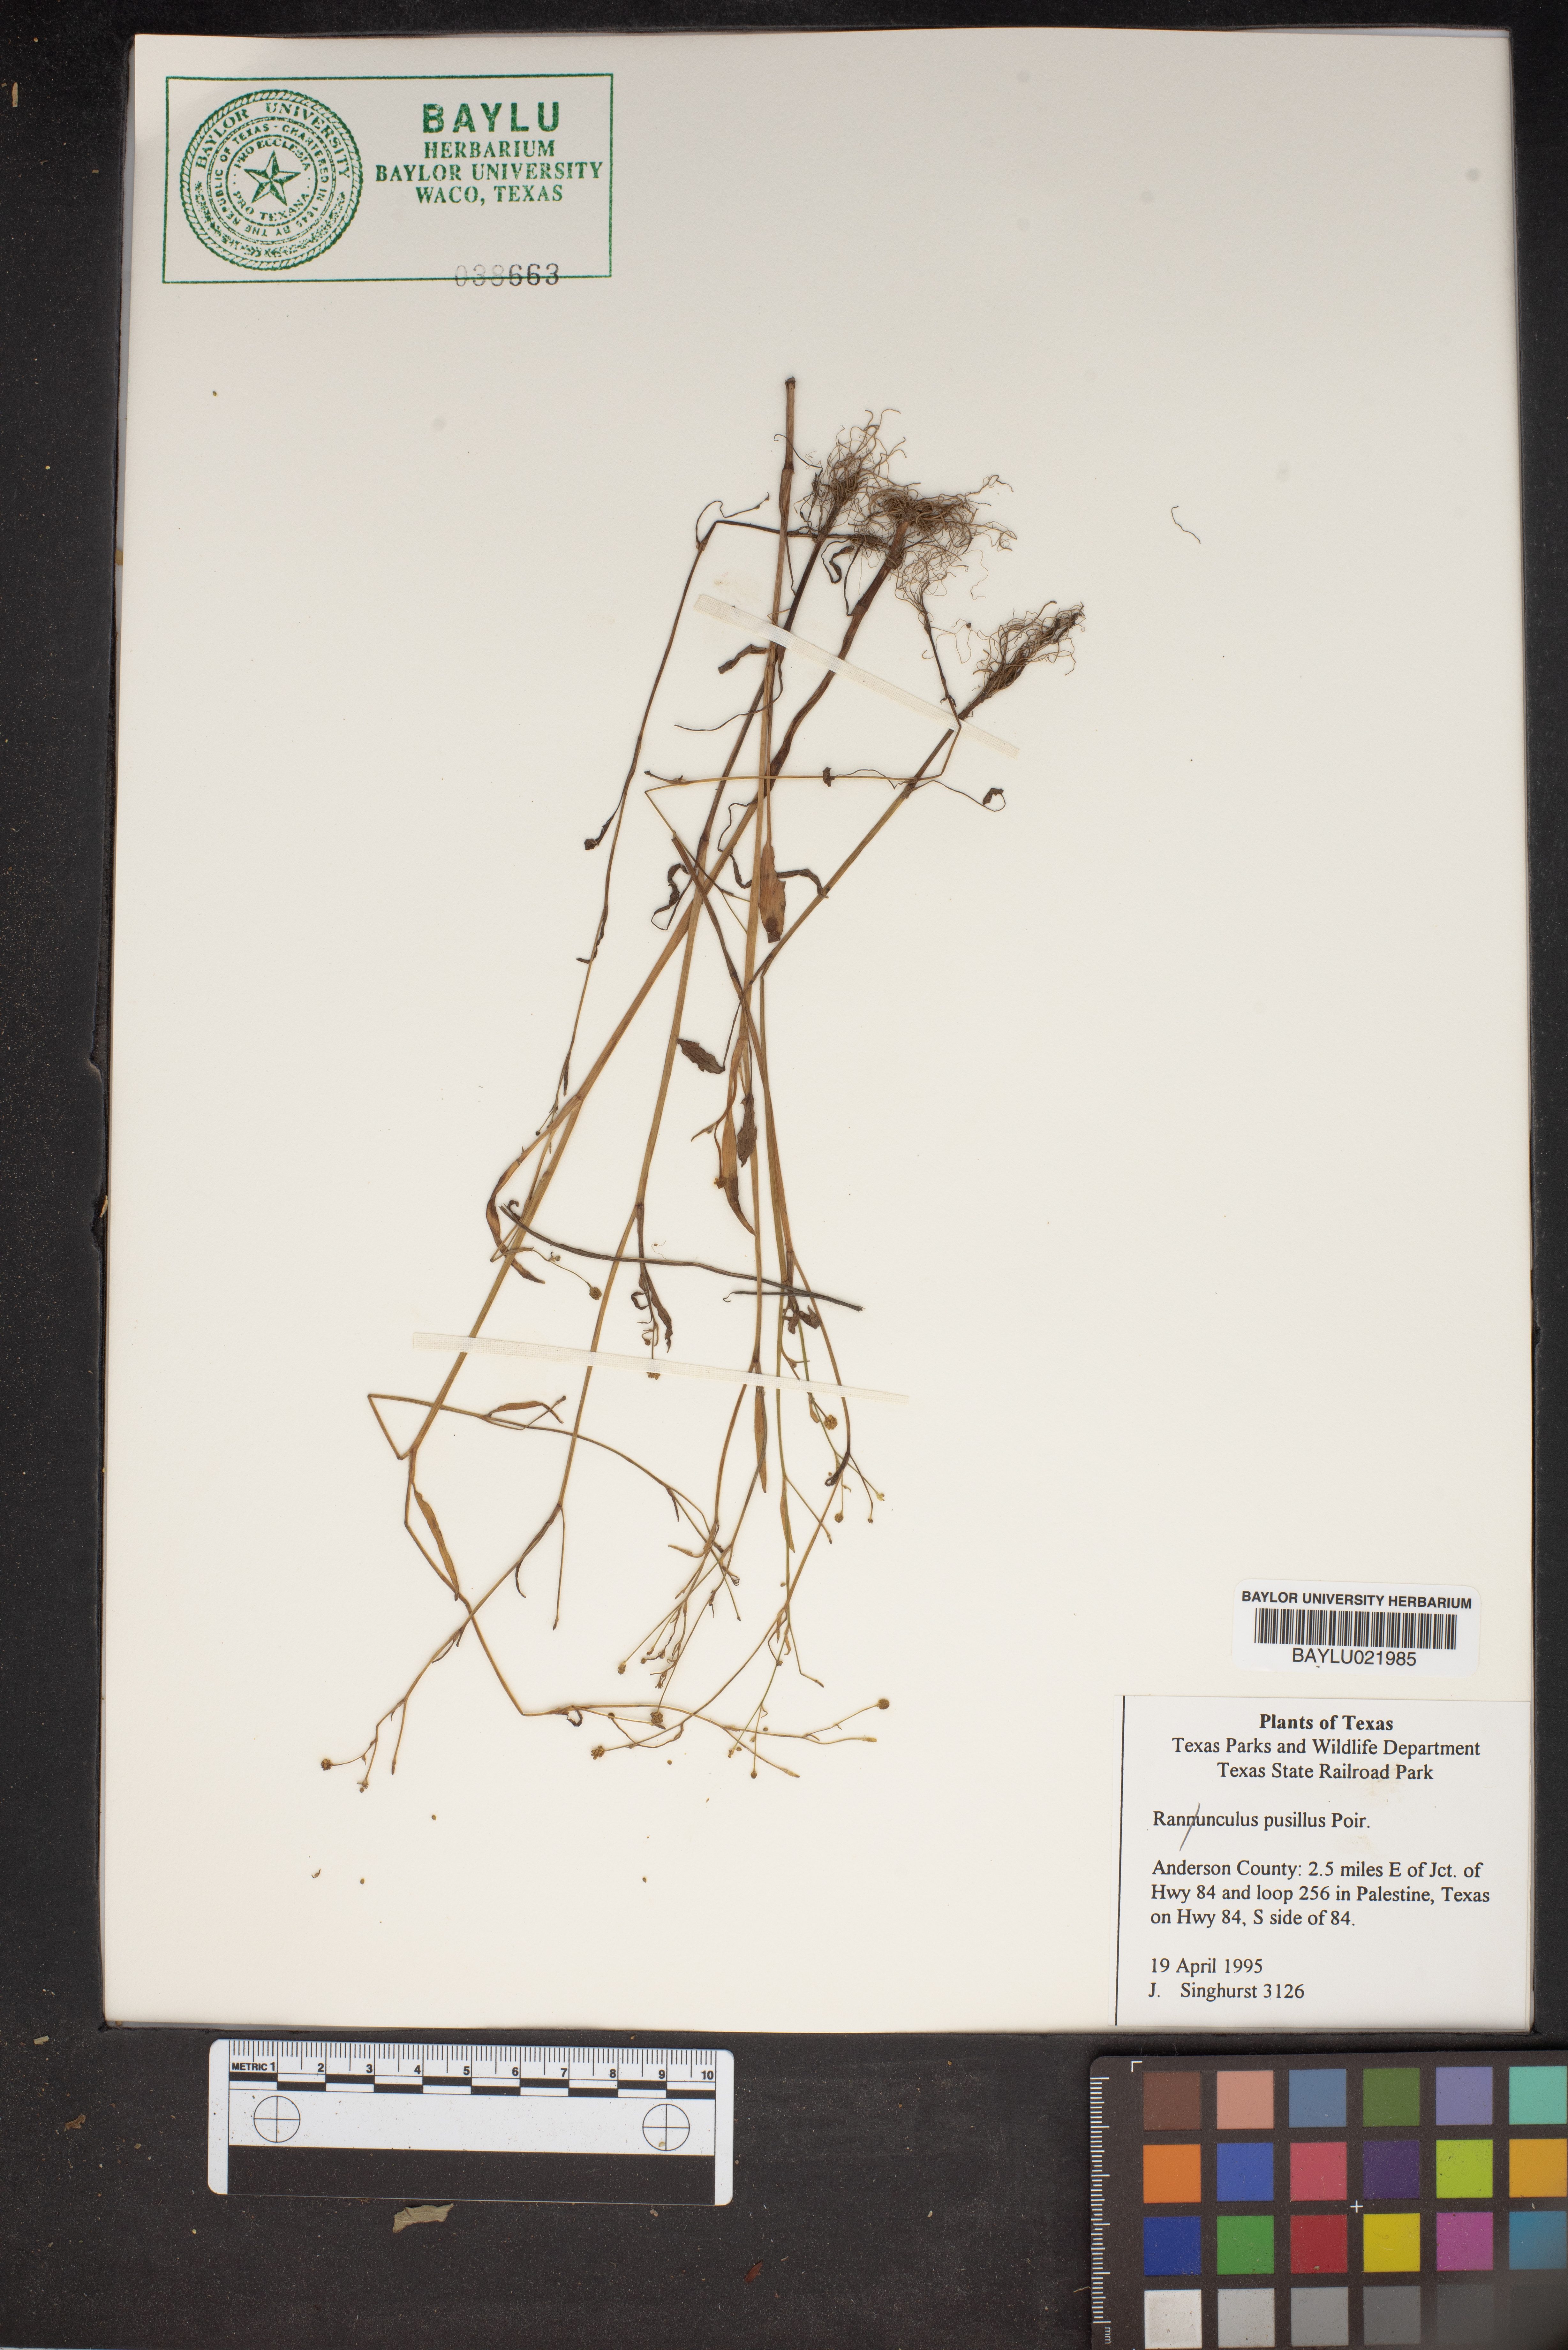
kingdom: Plantae
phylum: Tracheophyta
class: Magnoliopsida
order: Ranunculales
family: Ranunculaceae
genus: Ranunculus
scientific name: Ranunculus pusillus
